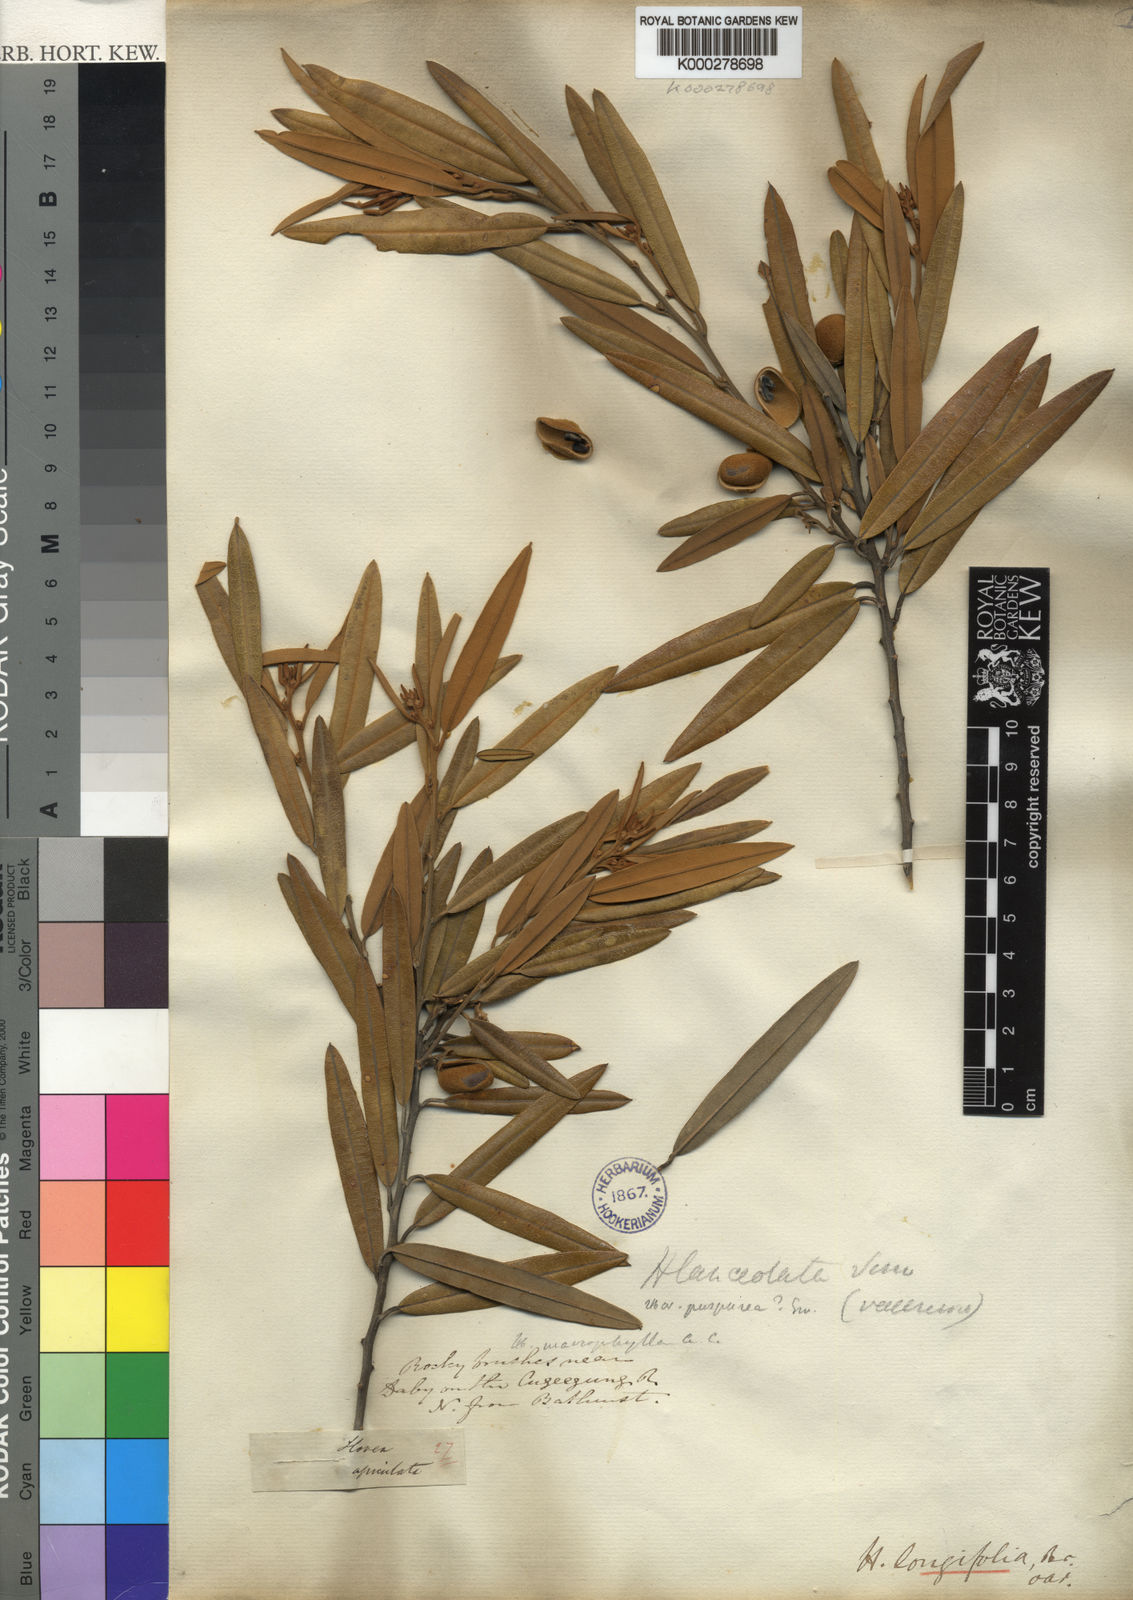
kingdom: Plantae
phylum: Tracheophyta
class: Magnoliopsida
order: Fabales
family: Fabaceae
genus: Hovea
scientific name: Hovea longifolia
